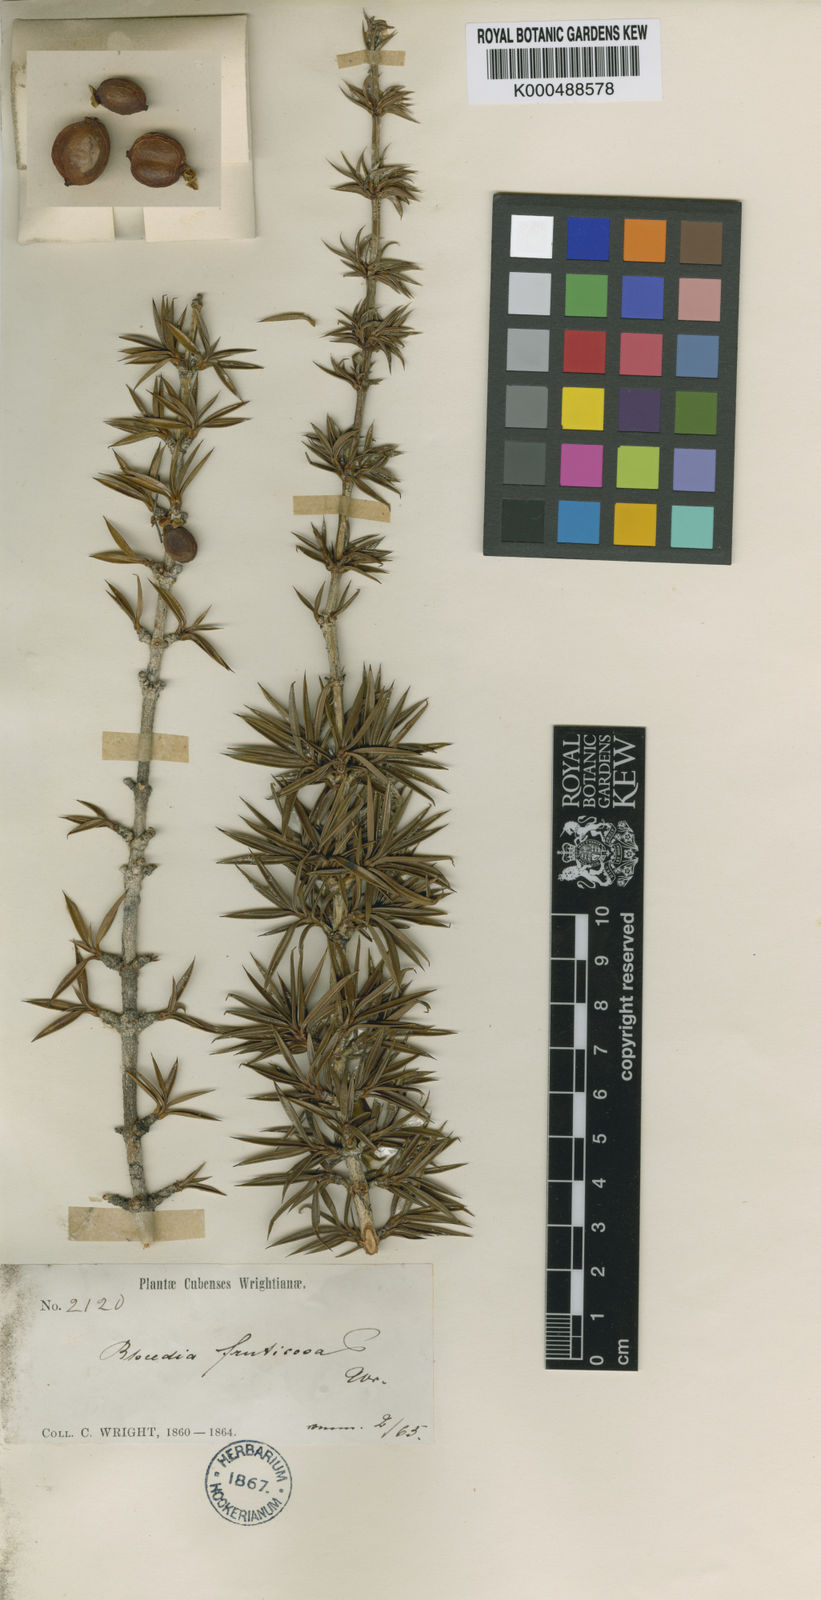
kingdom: Plantae
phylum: Tracheophyta
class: Magnoliopsida
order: Malpighiales
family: Clusiaceae
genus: Garcinia
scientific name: Garcinia fruticosa
